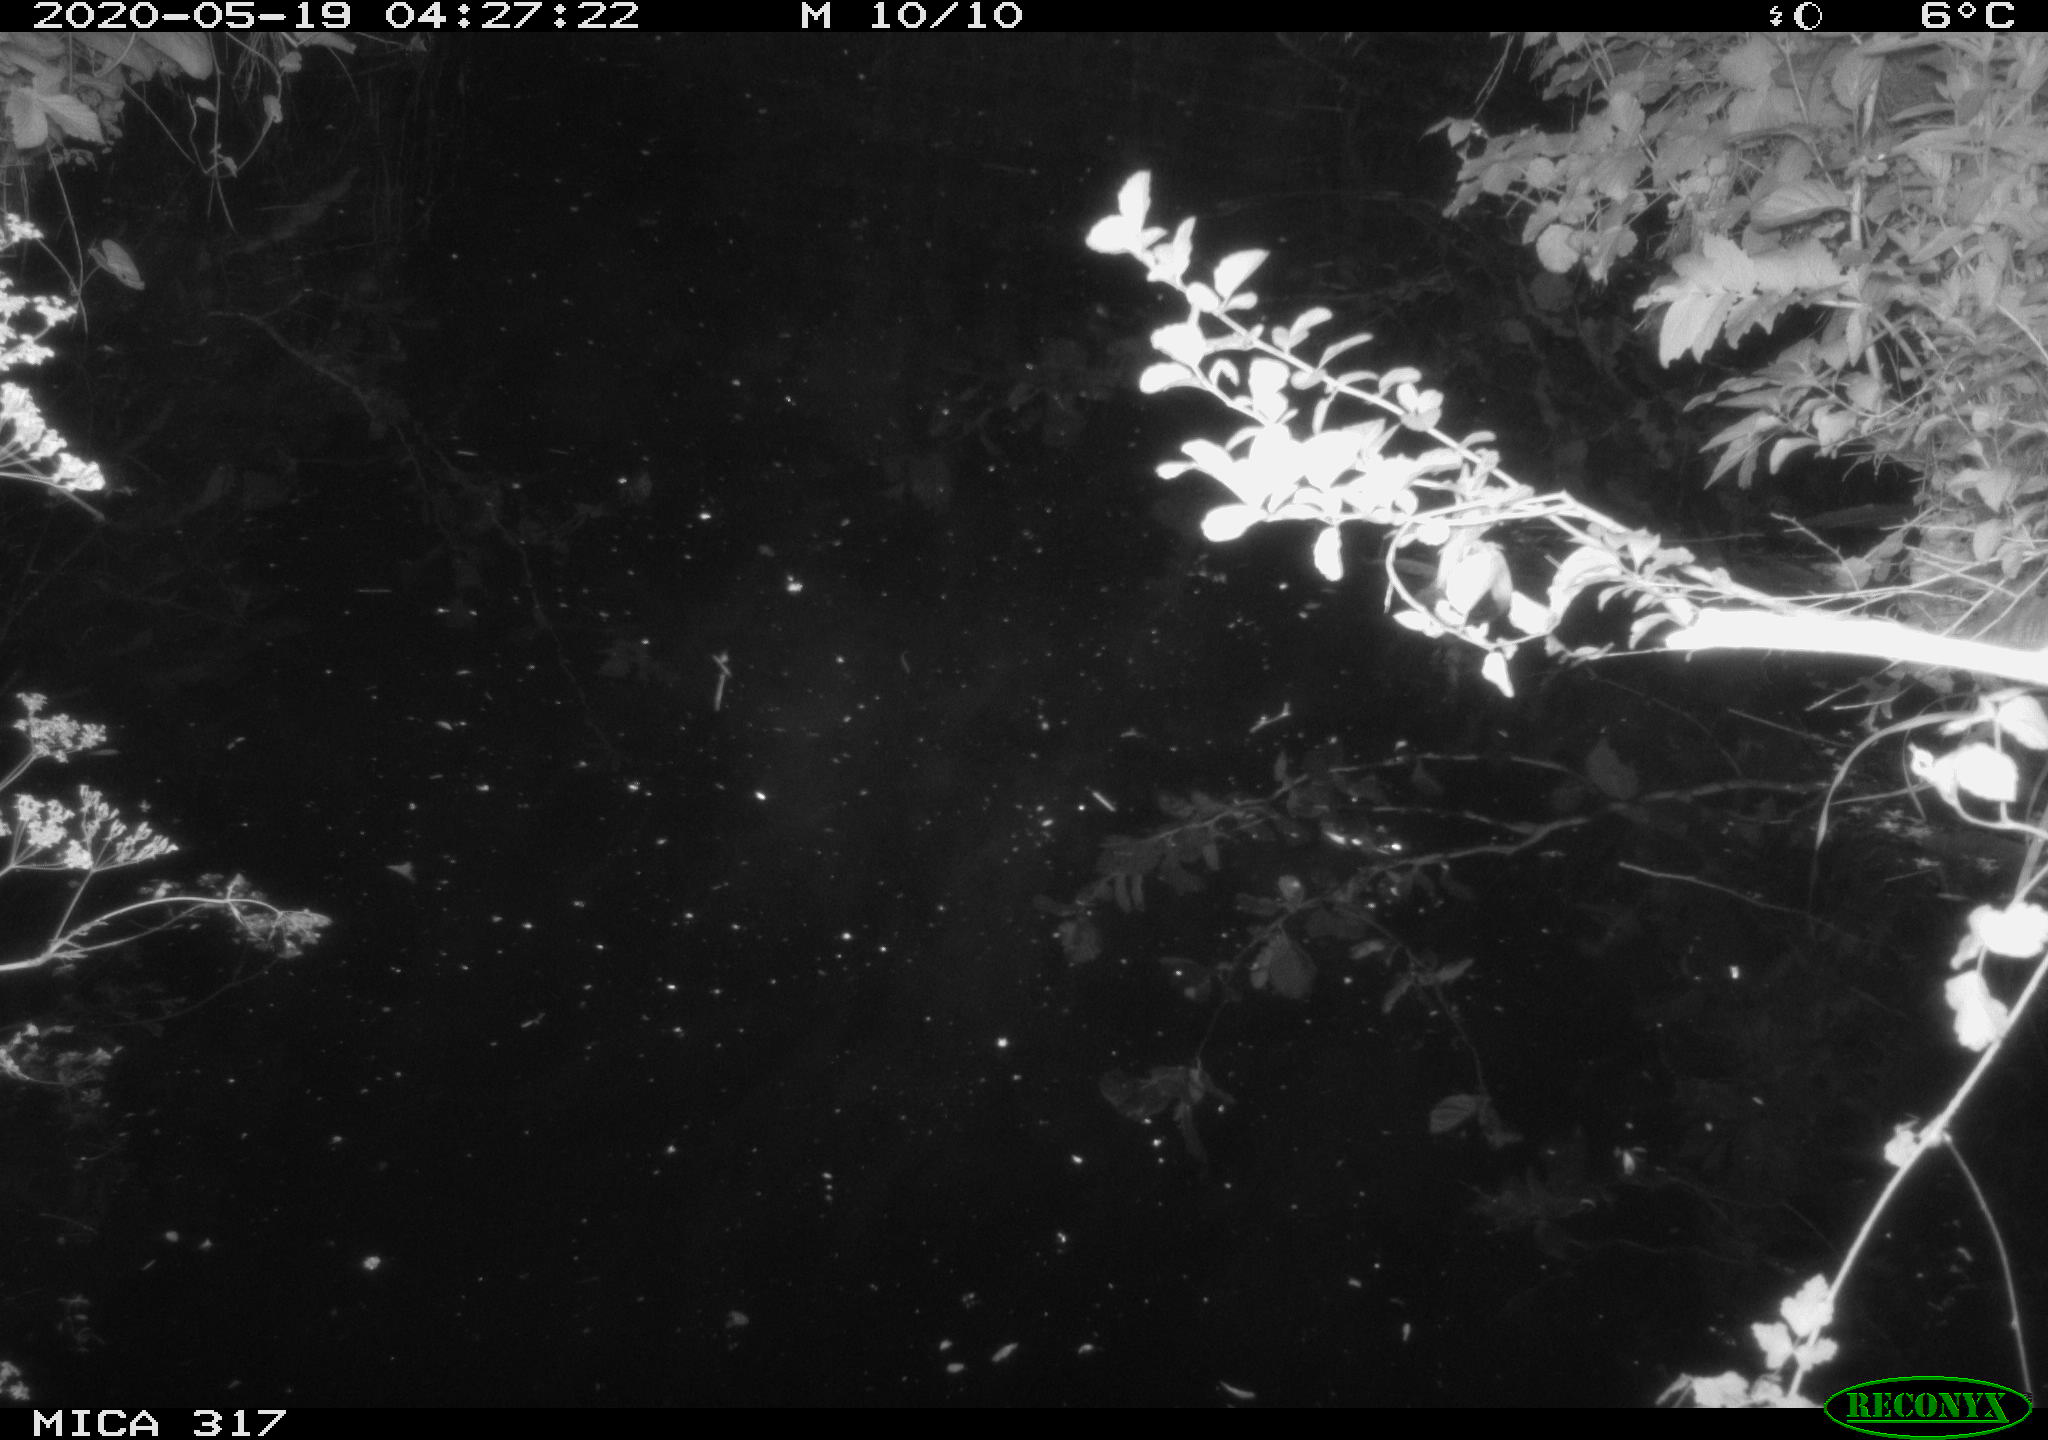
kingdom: Animalia
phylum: Chordata
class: Aves
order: Anseriformes
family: Anatidae
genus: Aix
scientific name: Aix galericulata
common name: Mandarin duck
